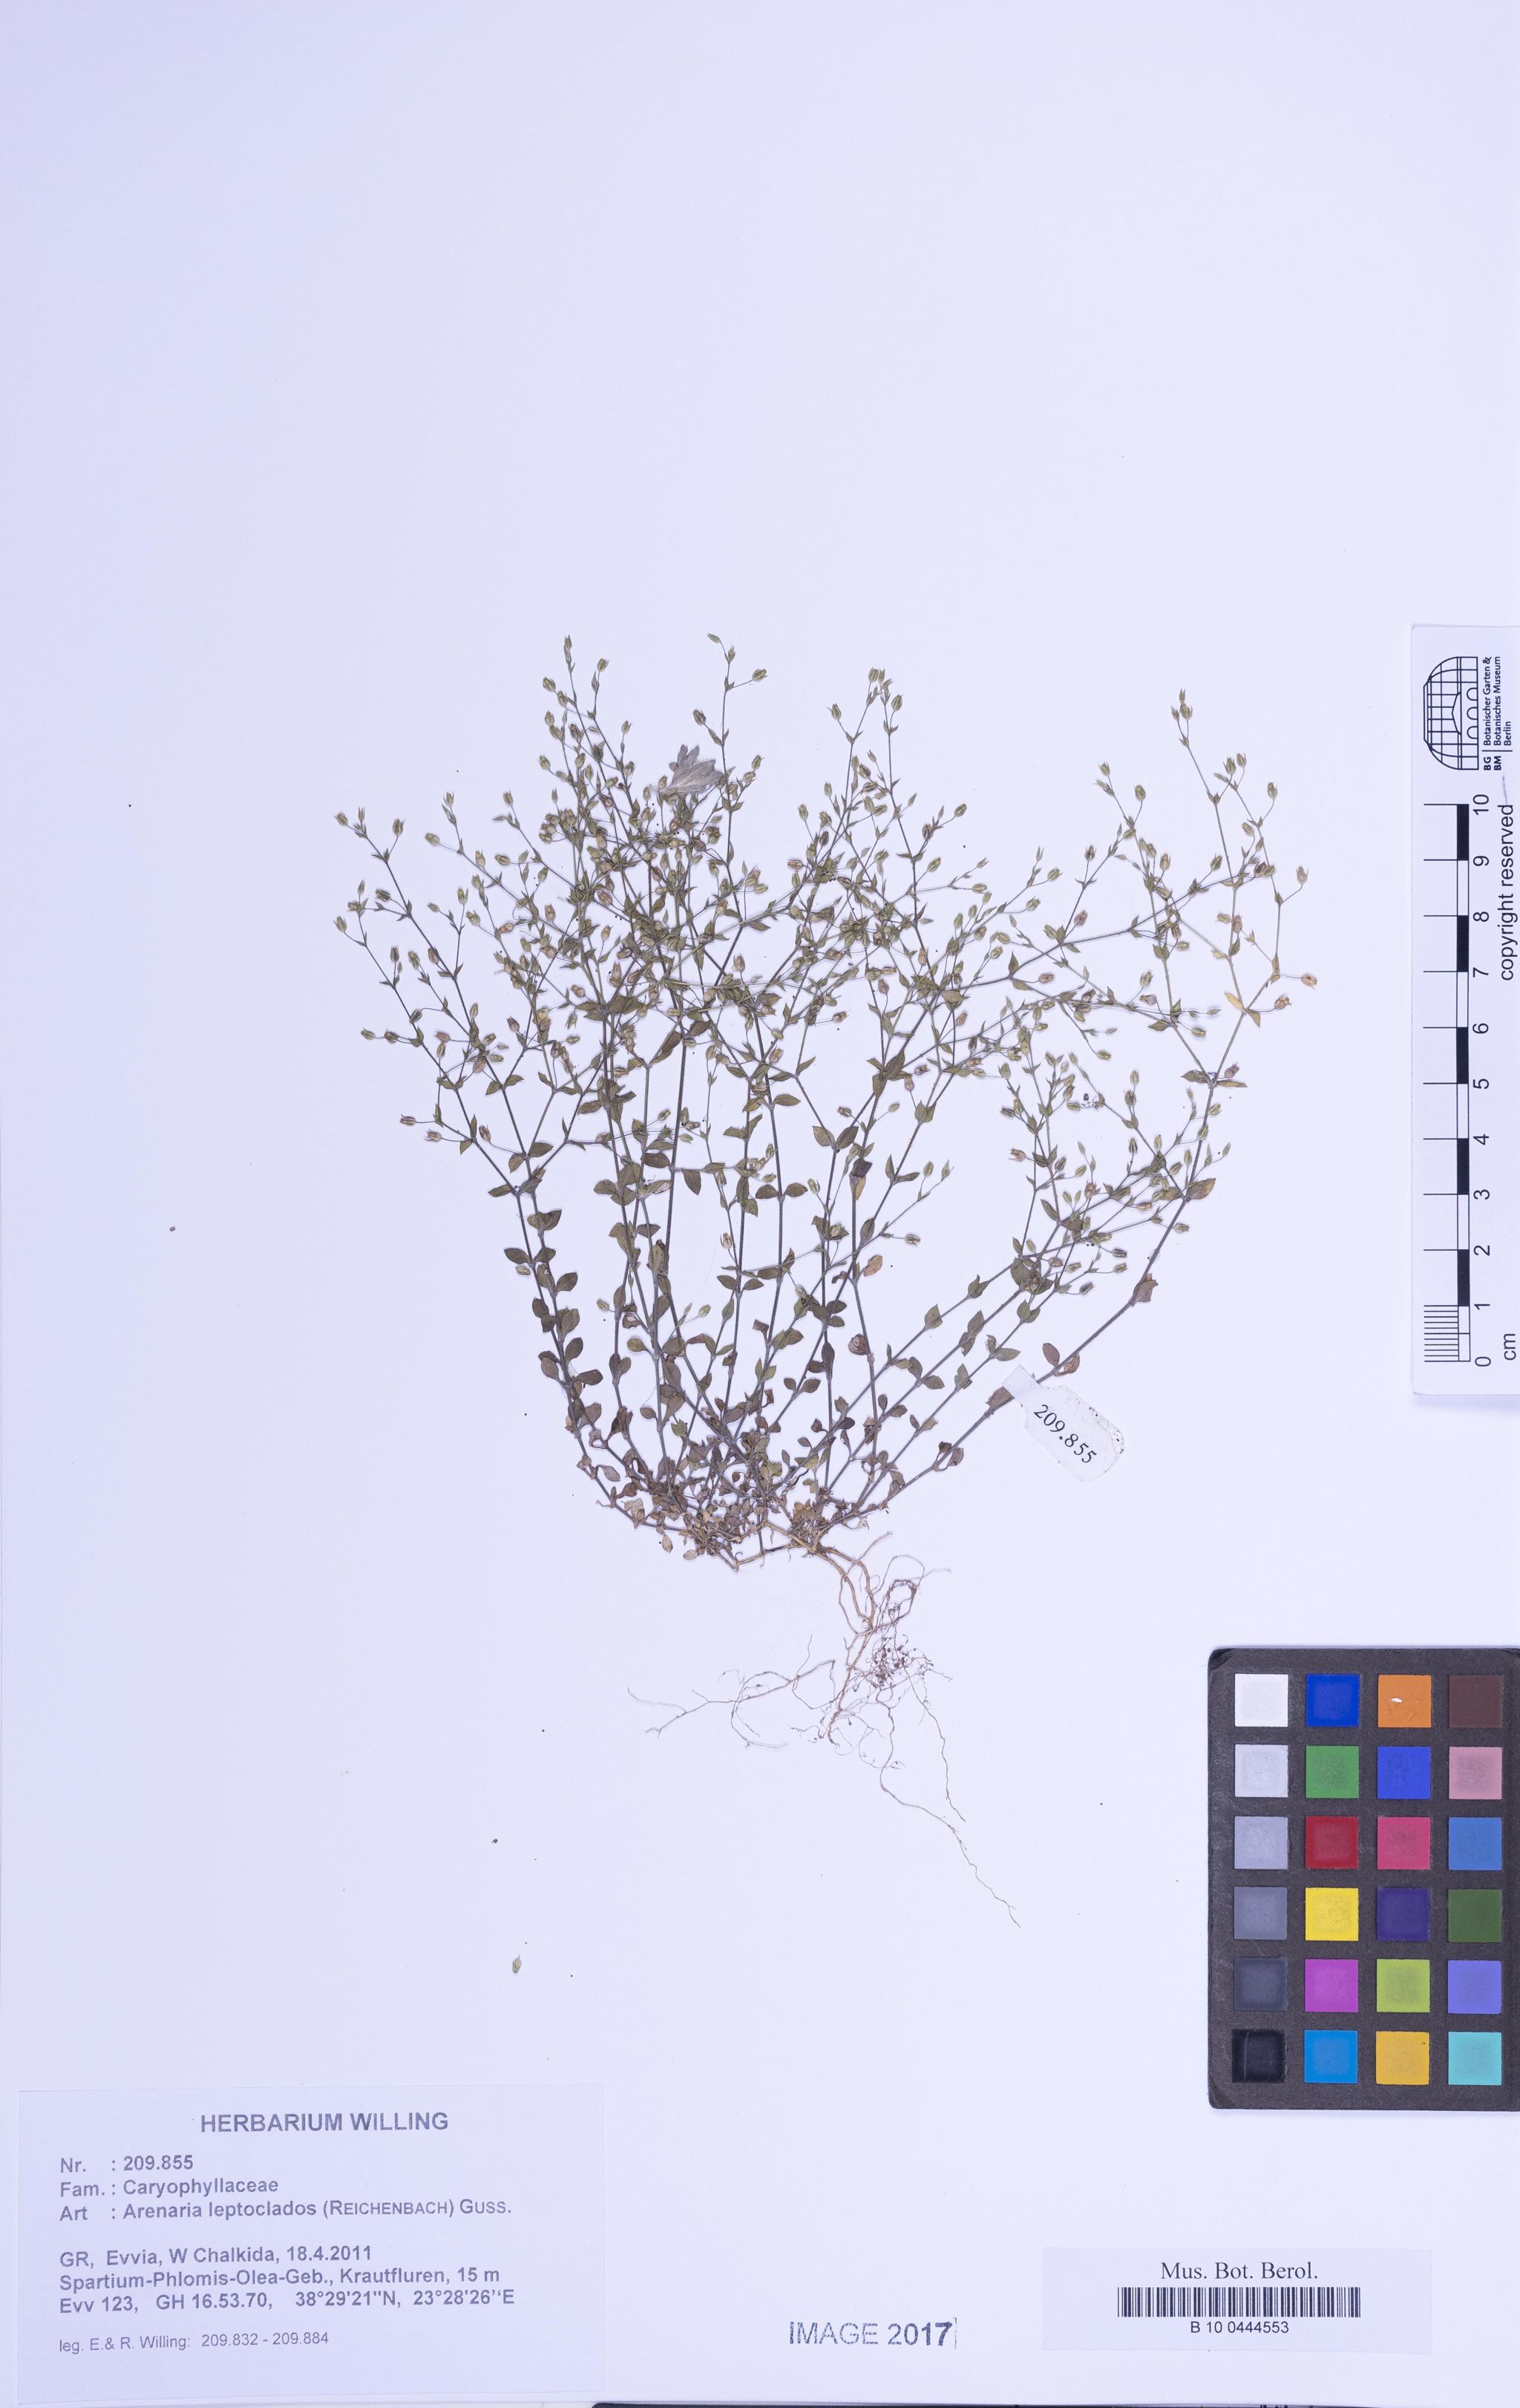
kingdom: Plantae
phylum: Tracheophyta
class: Magnoliopsida
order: Caryophyllales
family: Caryophyllaceae
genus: Arenaria
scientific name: Arenaria leptoclados
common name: Thyme-leaved sandwort
